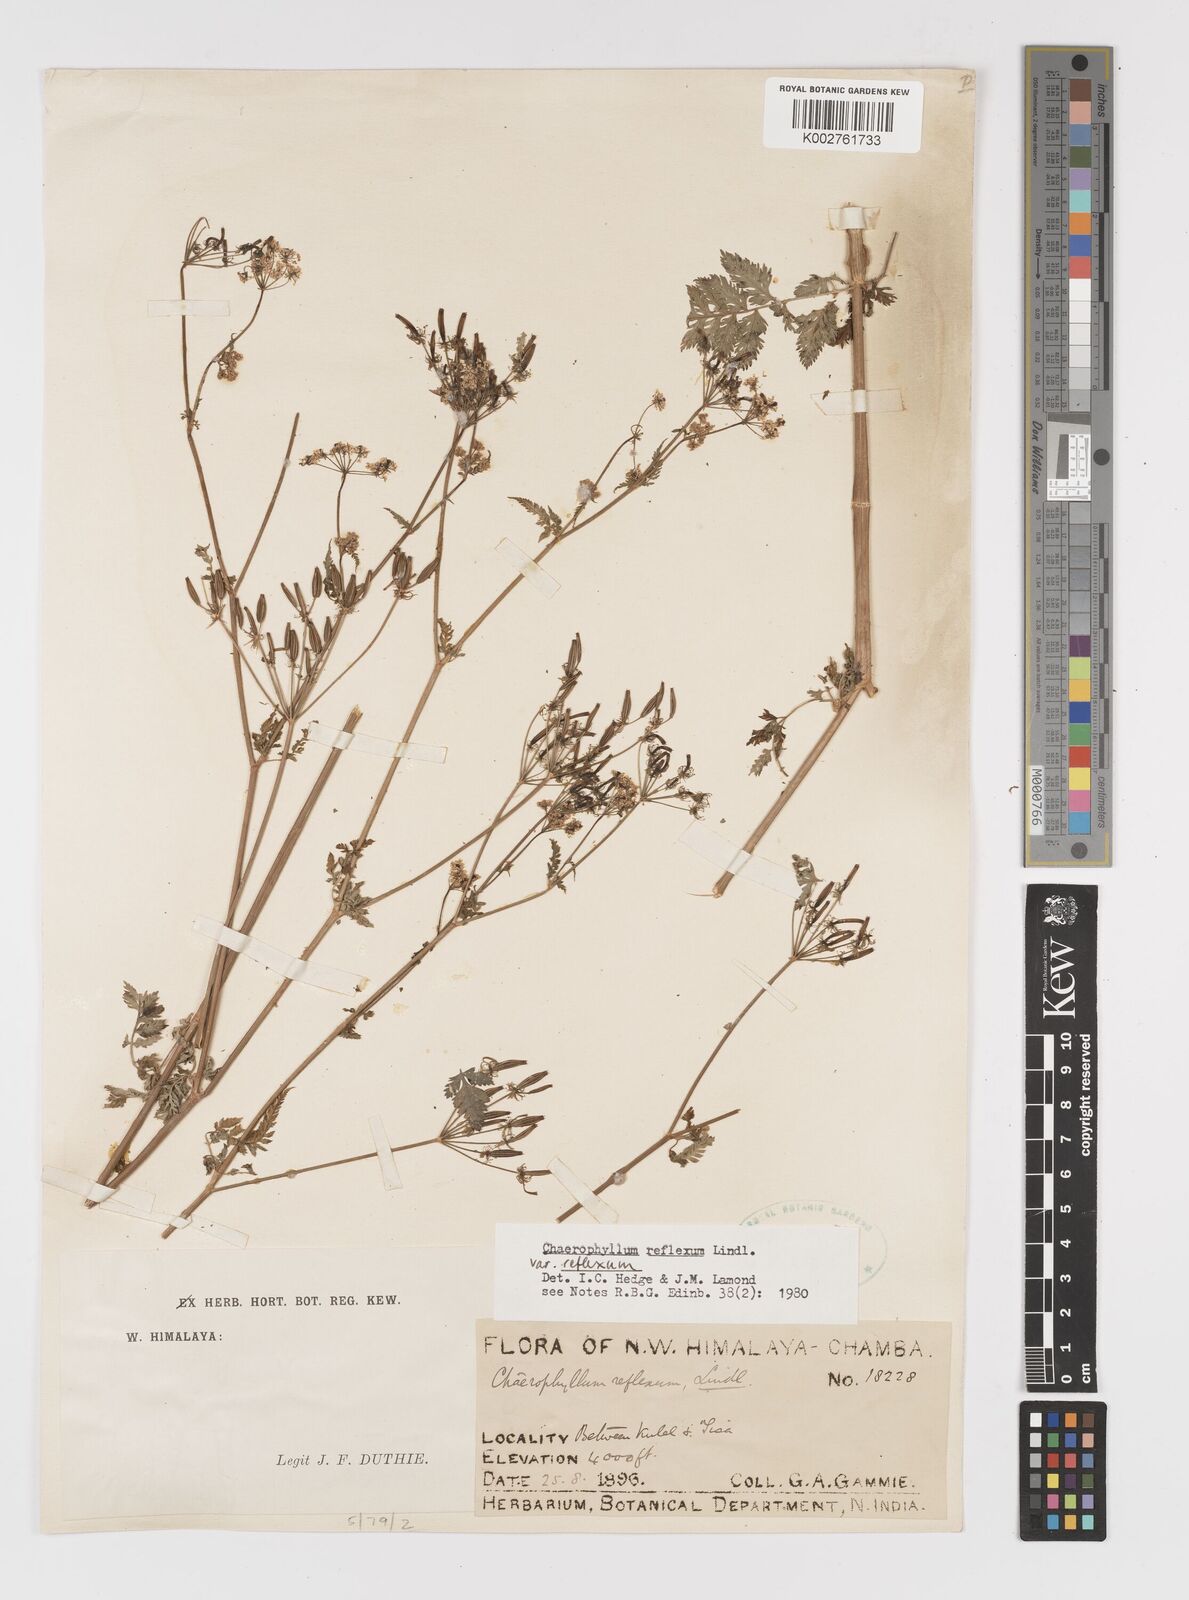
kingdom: Plantae
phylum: Tracheophyta
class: Magnoliopsida
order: Apiales
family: Apiaceae
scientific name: Apiaceae
